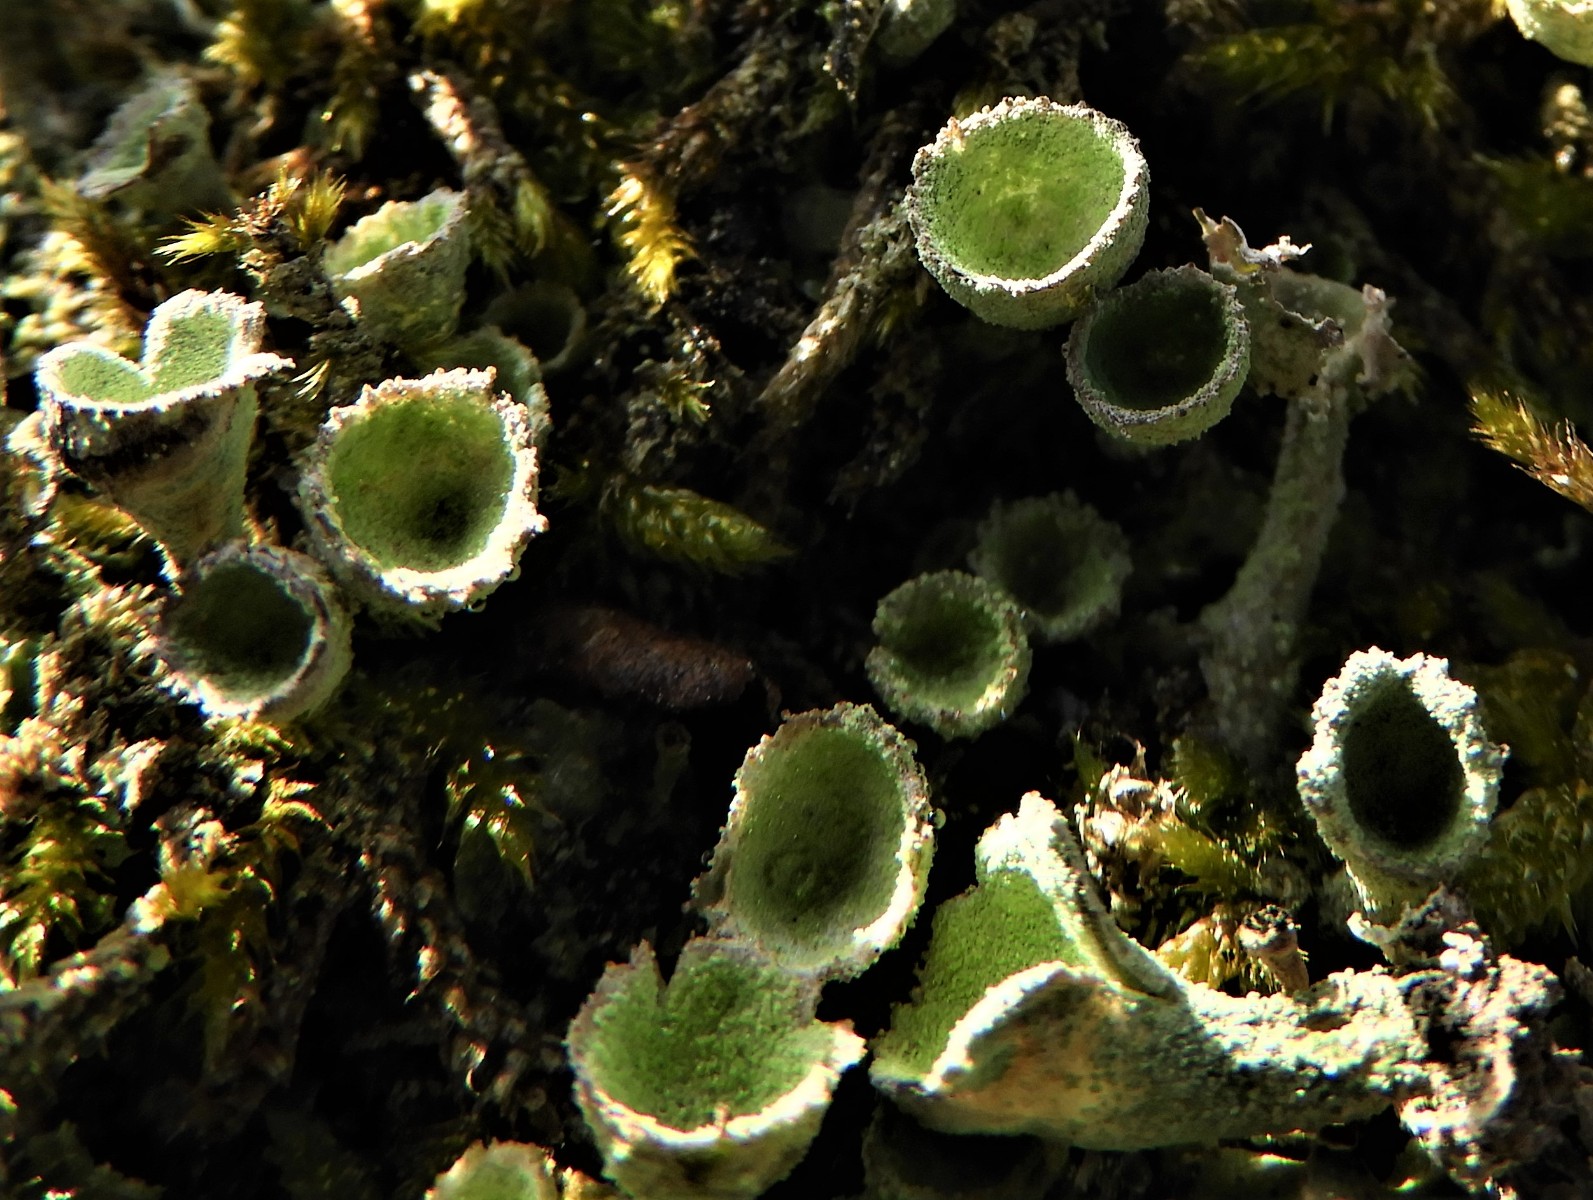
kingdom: Fungi
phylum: Ascomycota
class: Lecanoromycetes
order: Lecanorales
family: Cladoniaceae
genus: Cladonia
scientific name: Cladonia
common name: brungrøn bægerlav
